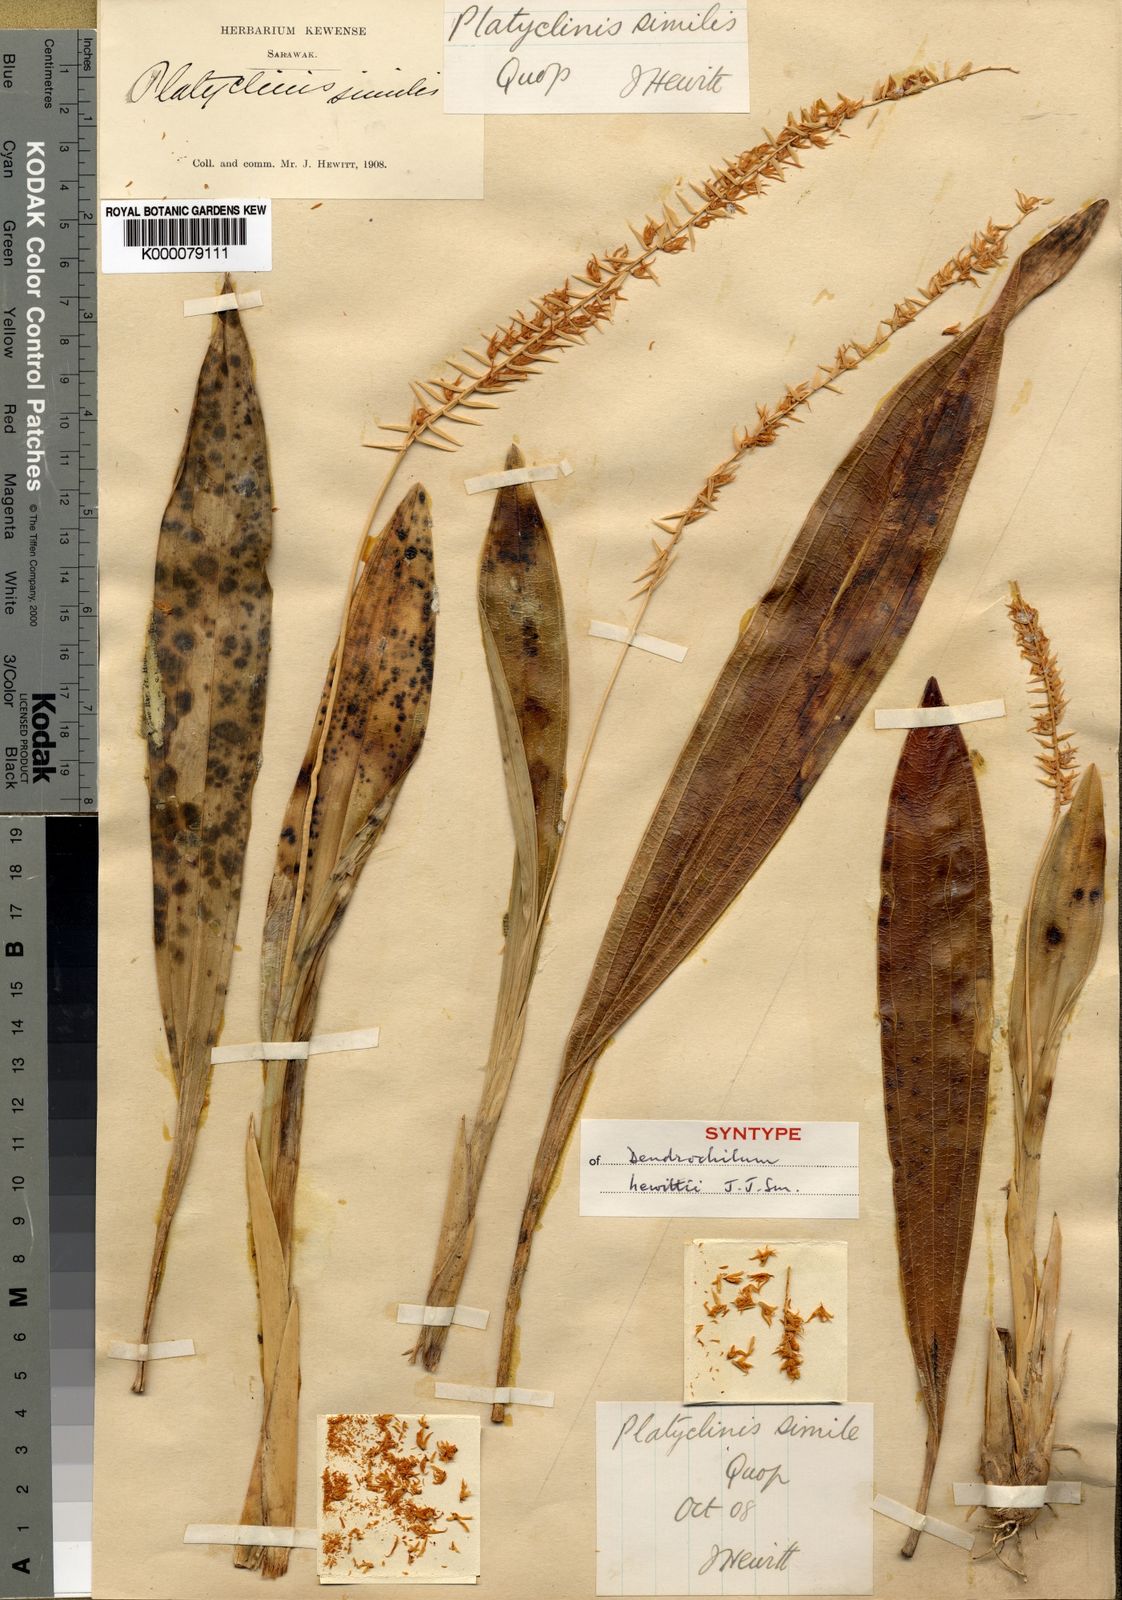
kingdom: Plantae
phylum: Tracheophyta
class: Liliopsida
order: Asparagales
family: Orchidaceae
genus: Coelogyne
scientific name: Coelogyne havilandii
